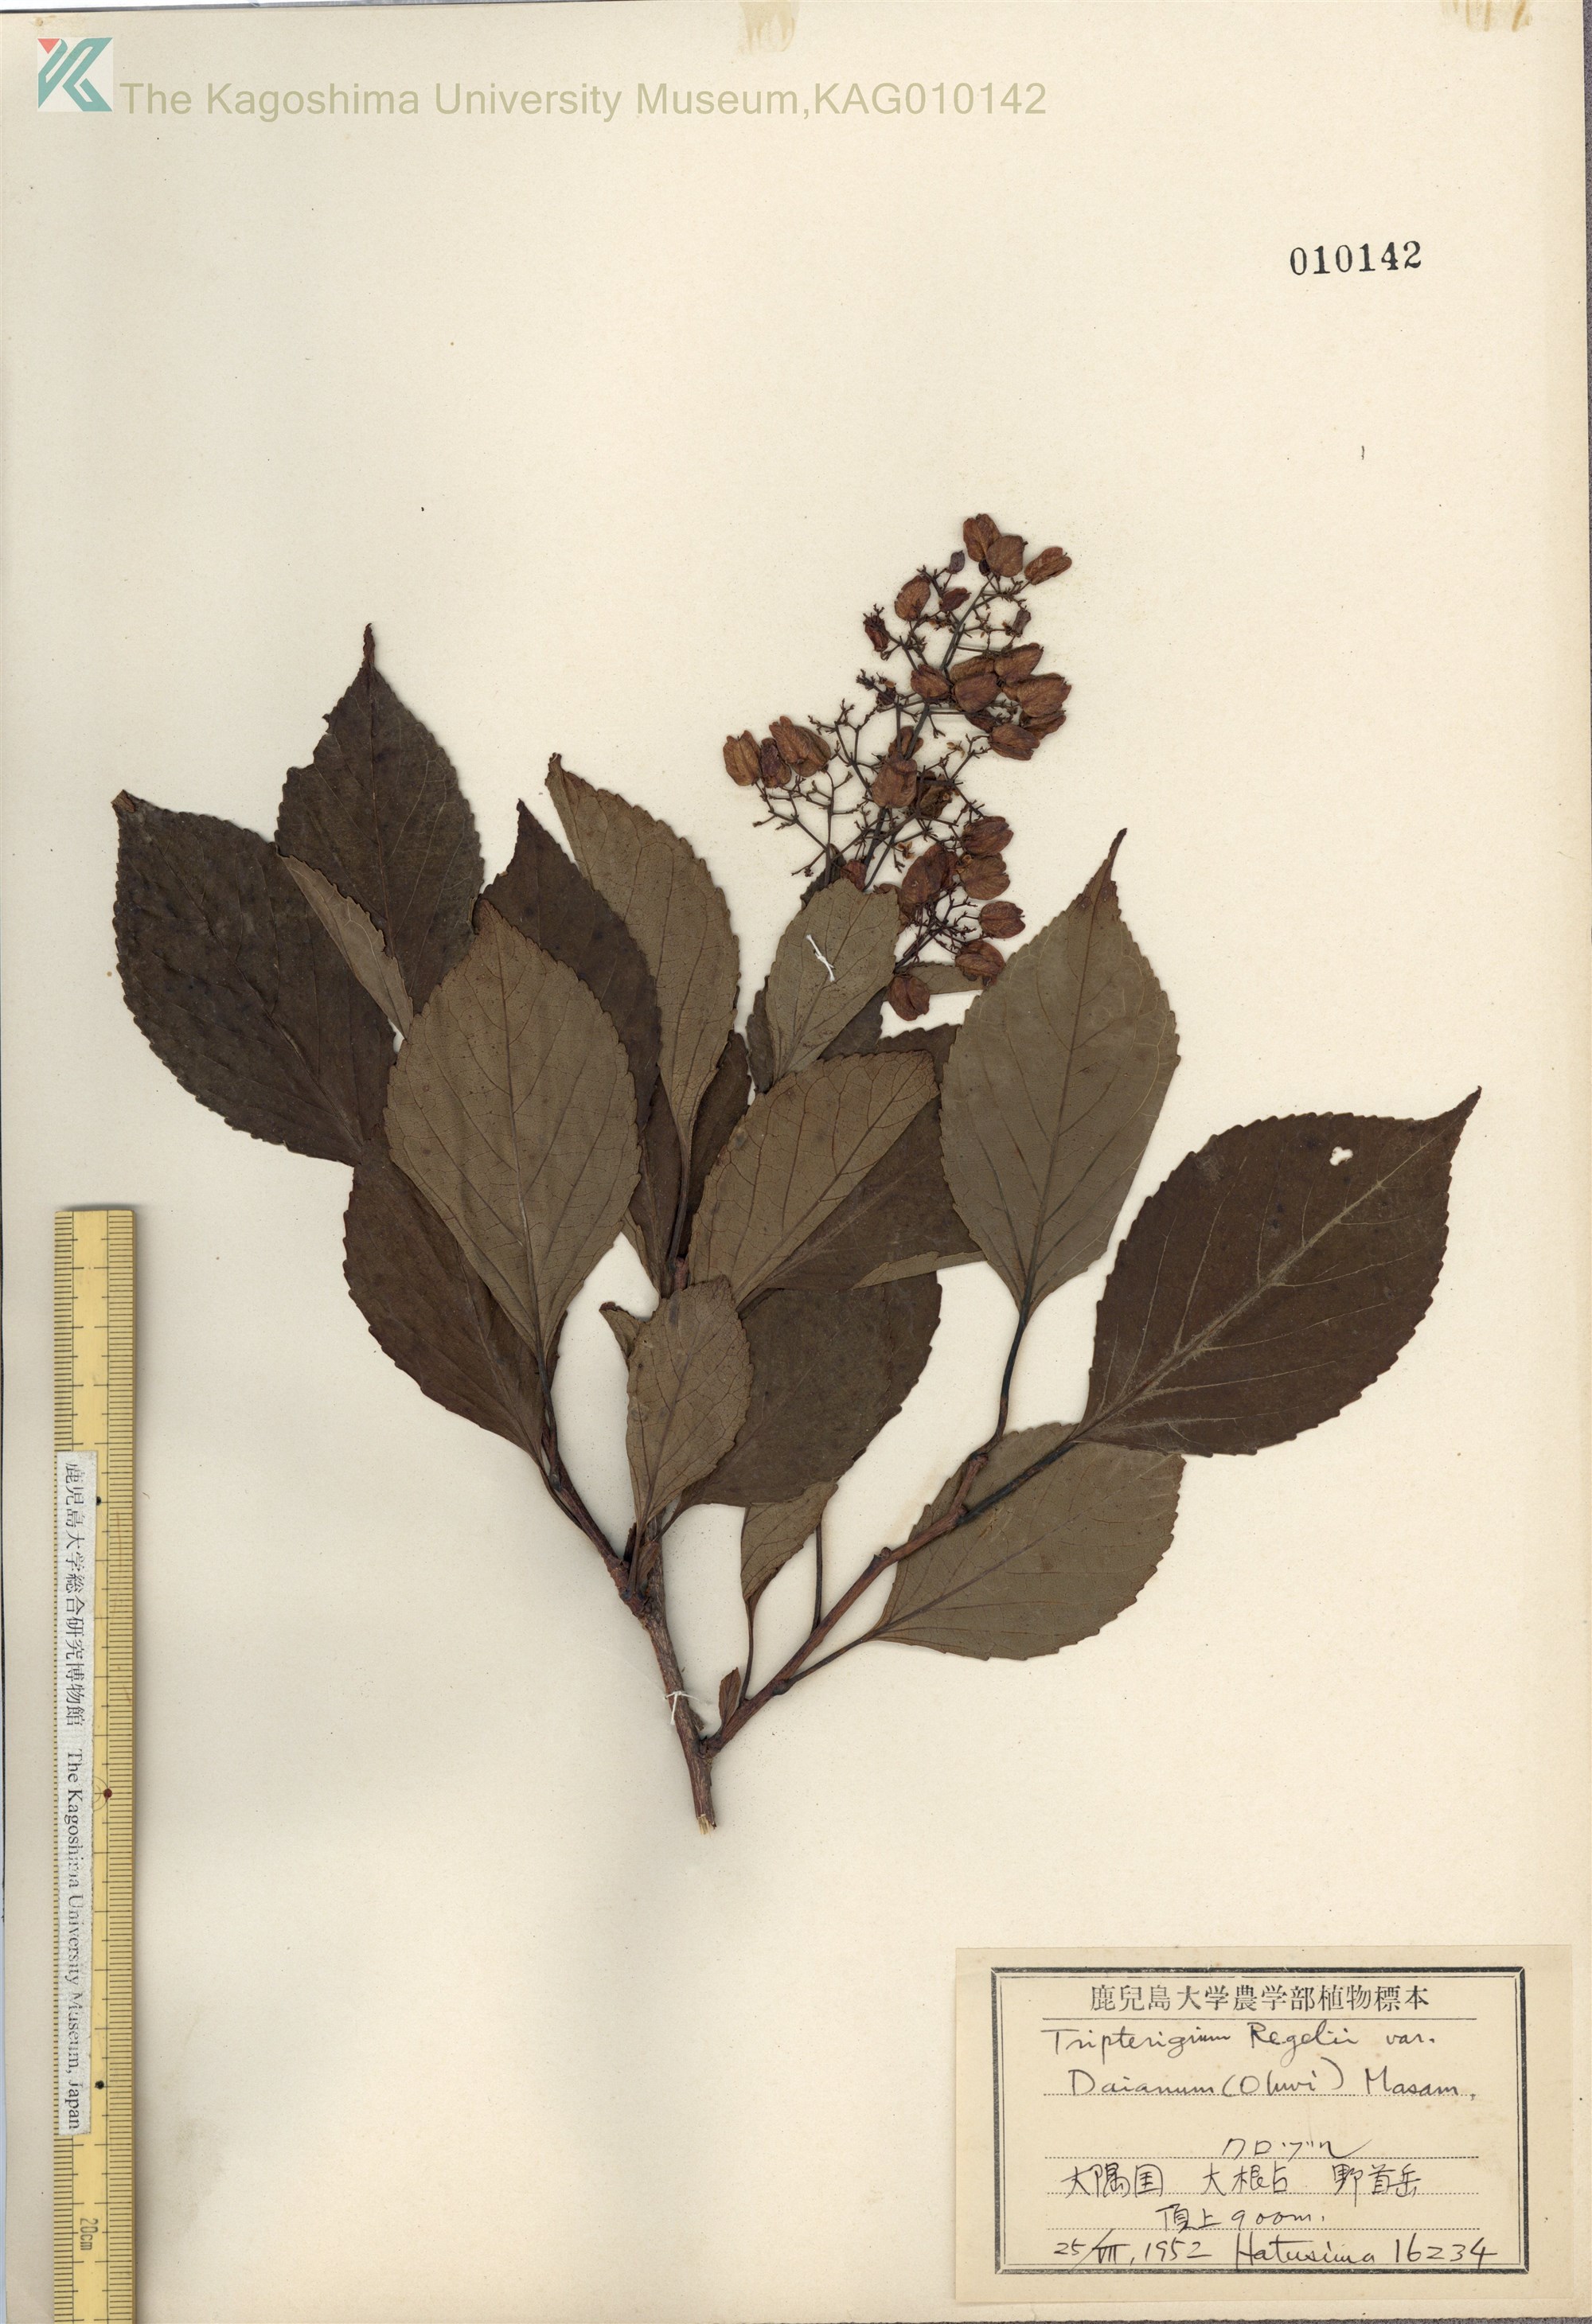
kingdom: Plantae
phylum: Tracheophyta
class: Magnoliopsida
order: Celastrales
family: Celastraceae
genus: Tripterygium
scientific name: Tripterygium doianum
